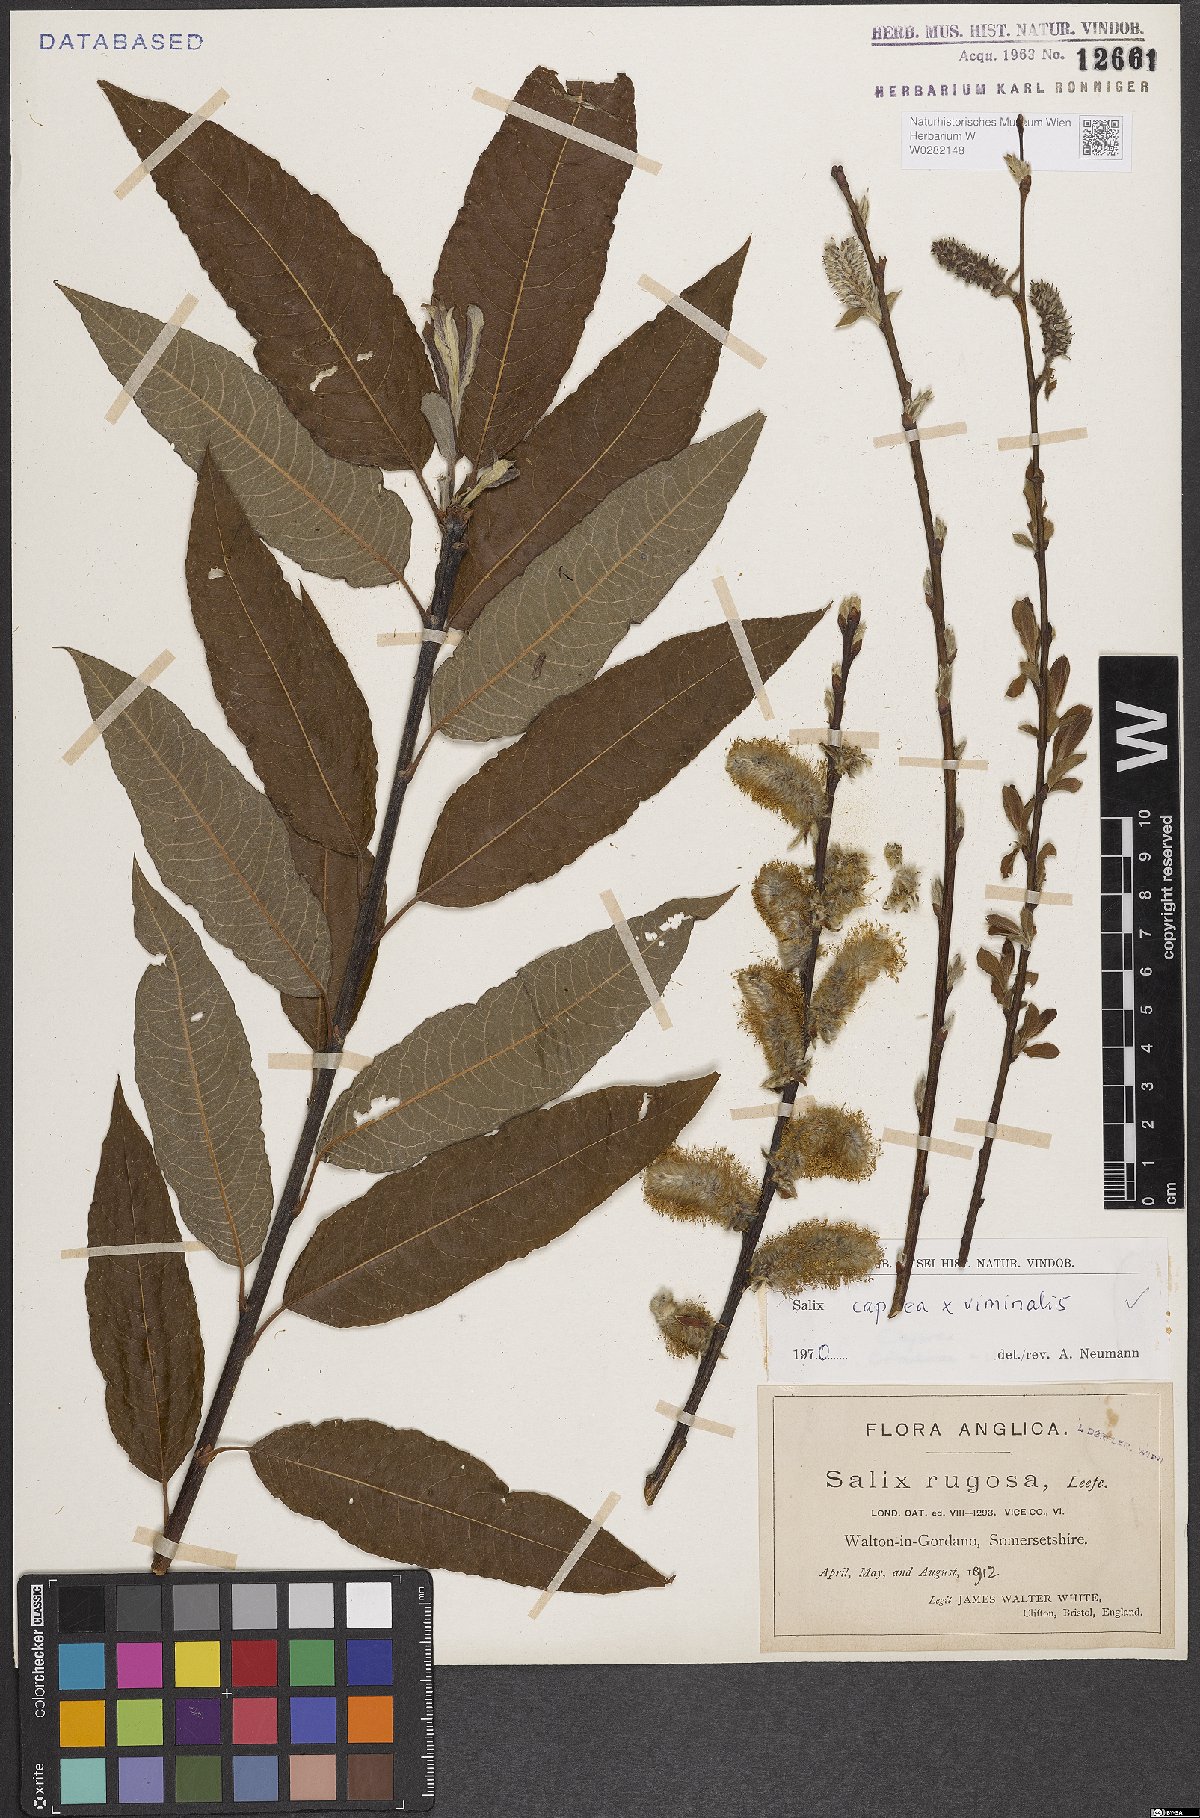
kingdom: Plantae
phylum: Tracheophyta
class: Magnoliopsida
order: Malpighiales
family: Salicaceae
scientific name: Salicaceae
